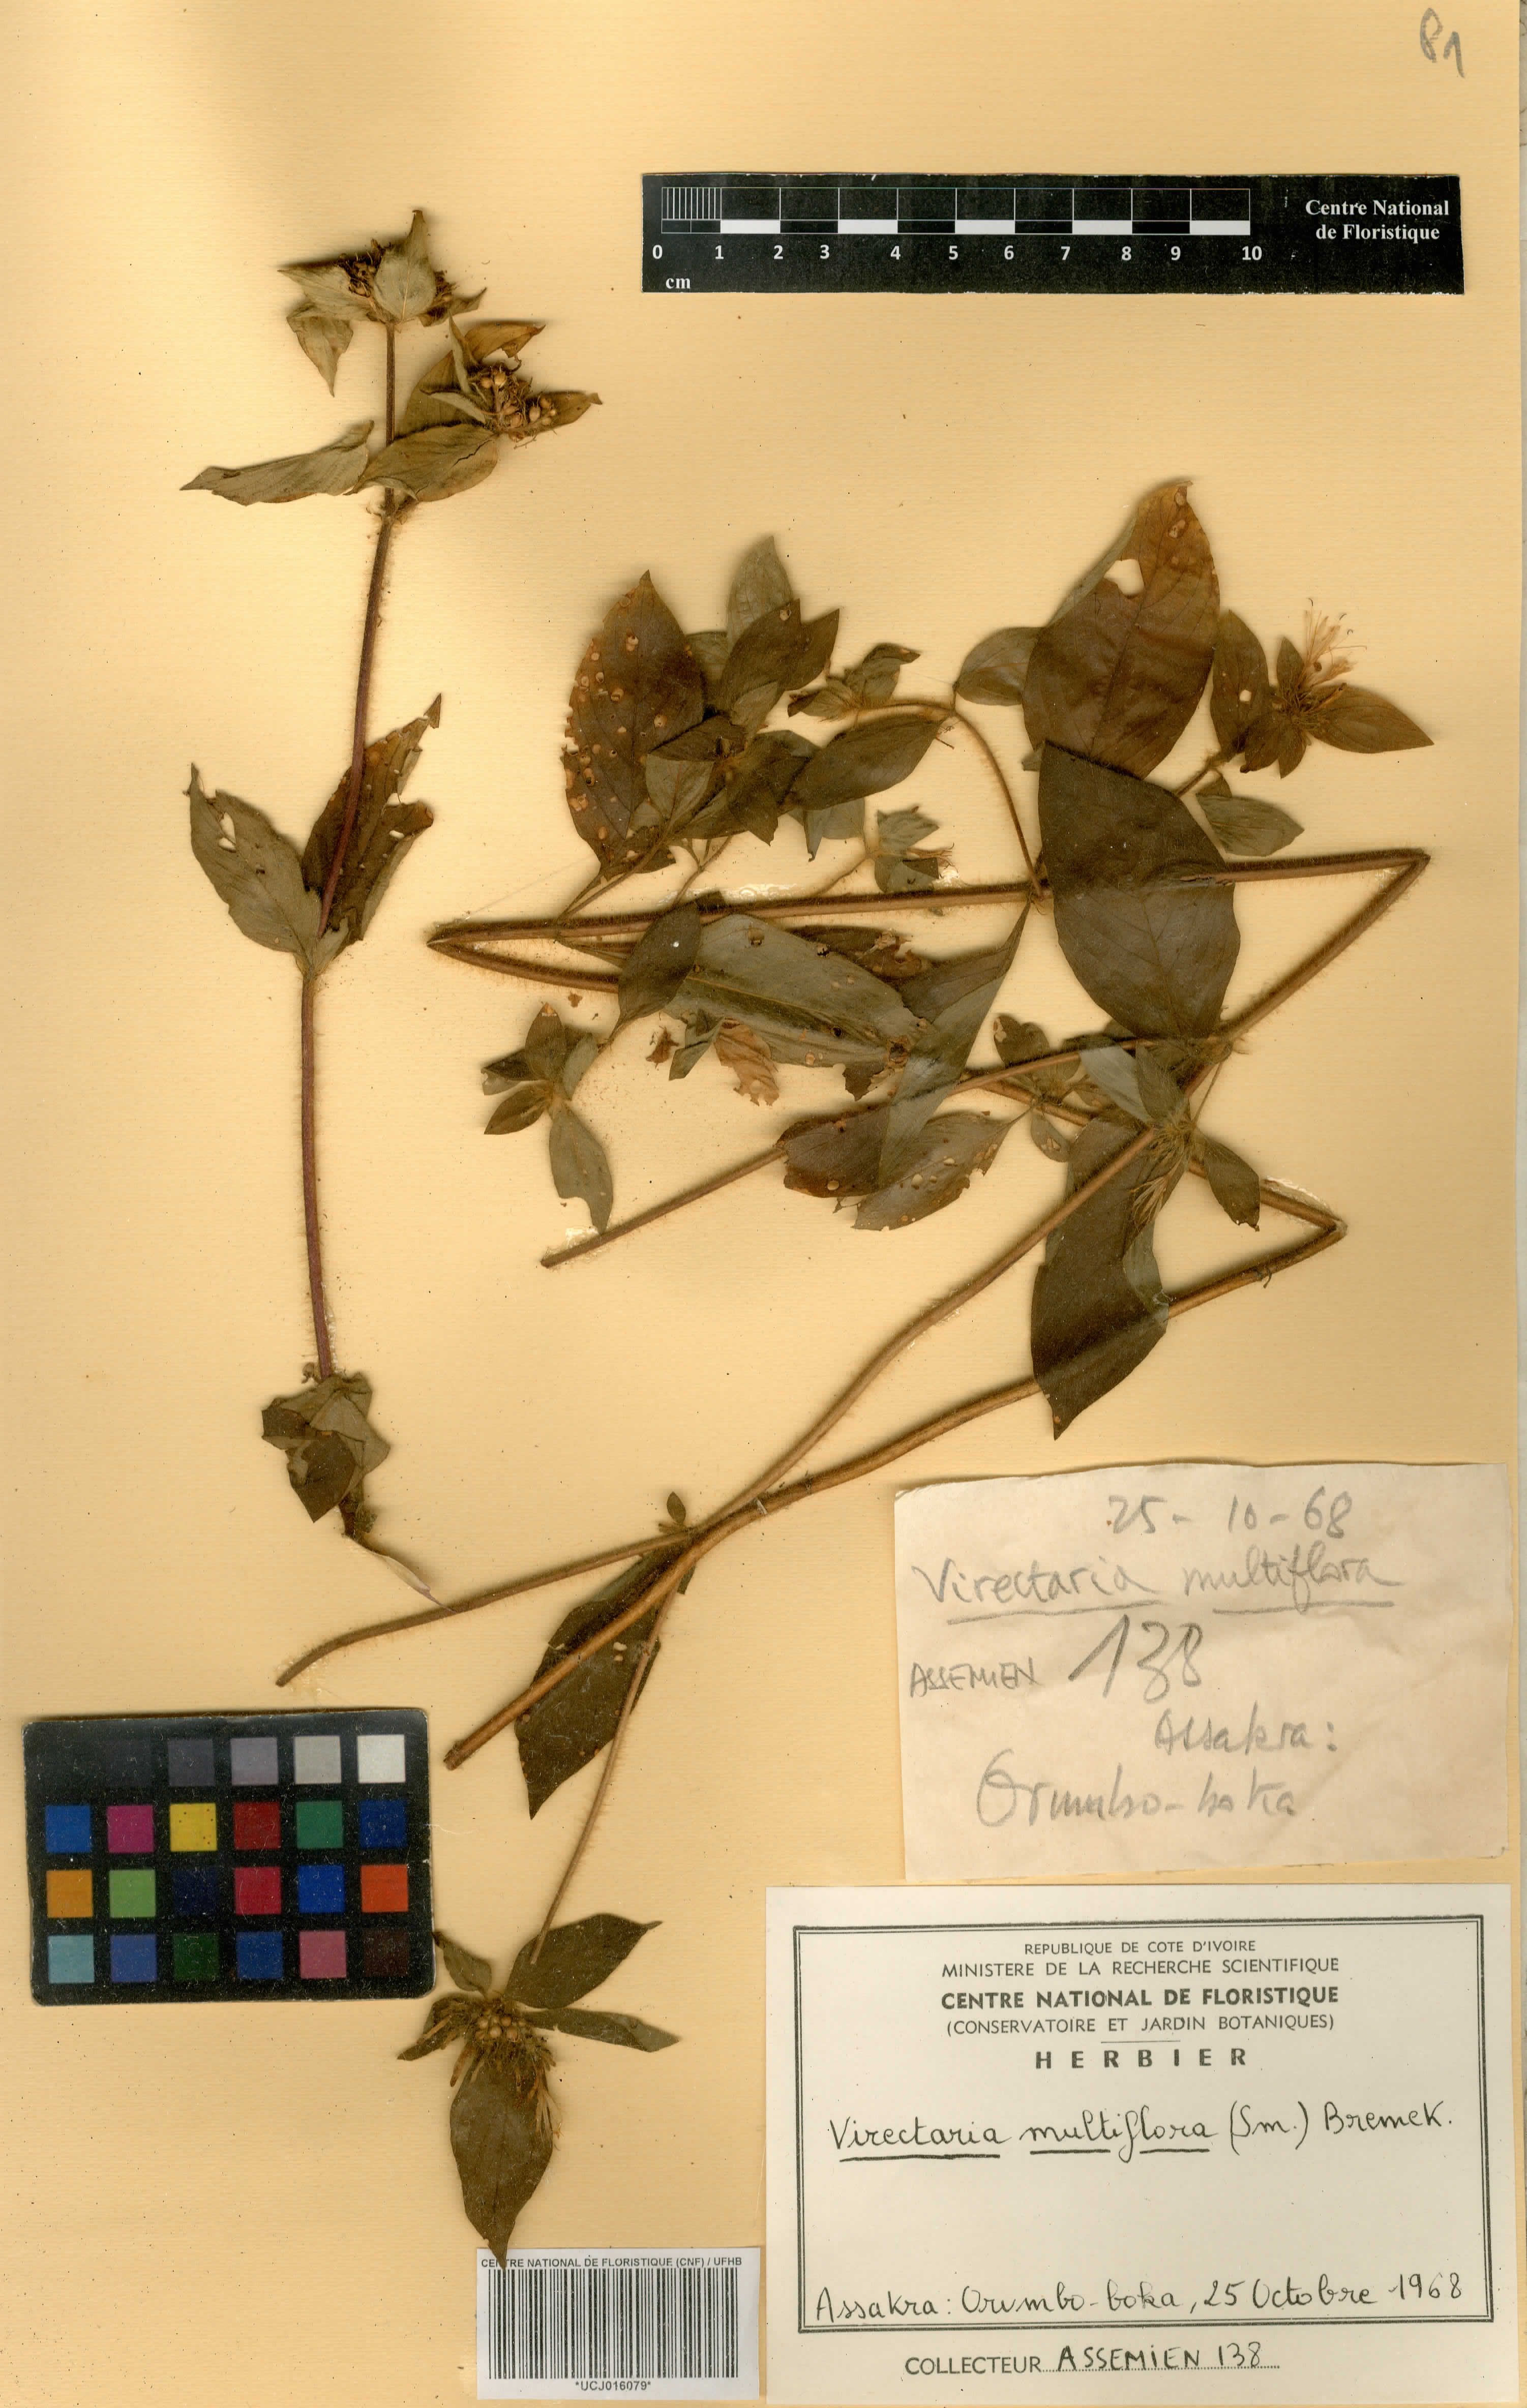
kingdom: Plantae
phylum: Tracheophyta
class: Magnoliopsida
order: Gentianales
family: Rubiaceae
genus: Virectaria
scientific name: Virectaria multiflora
